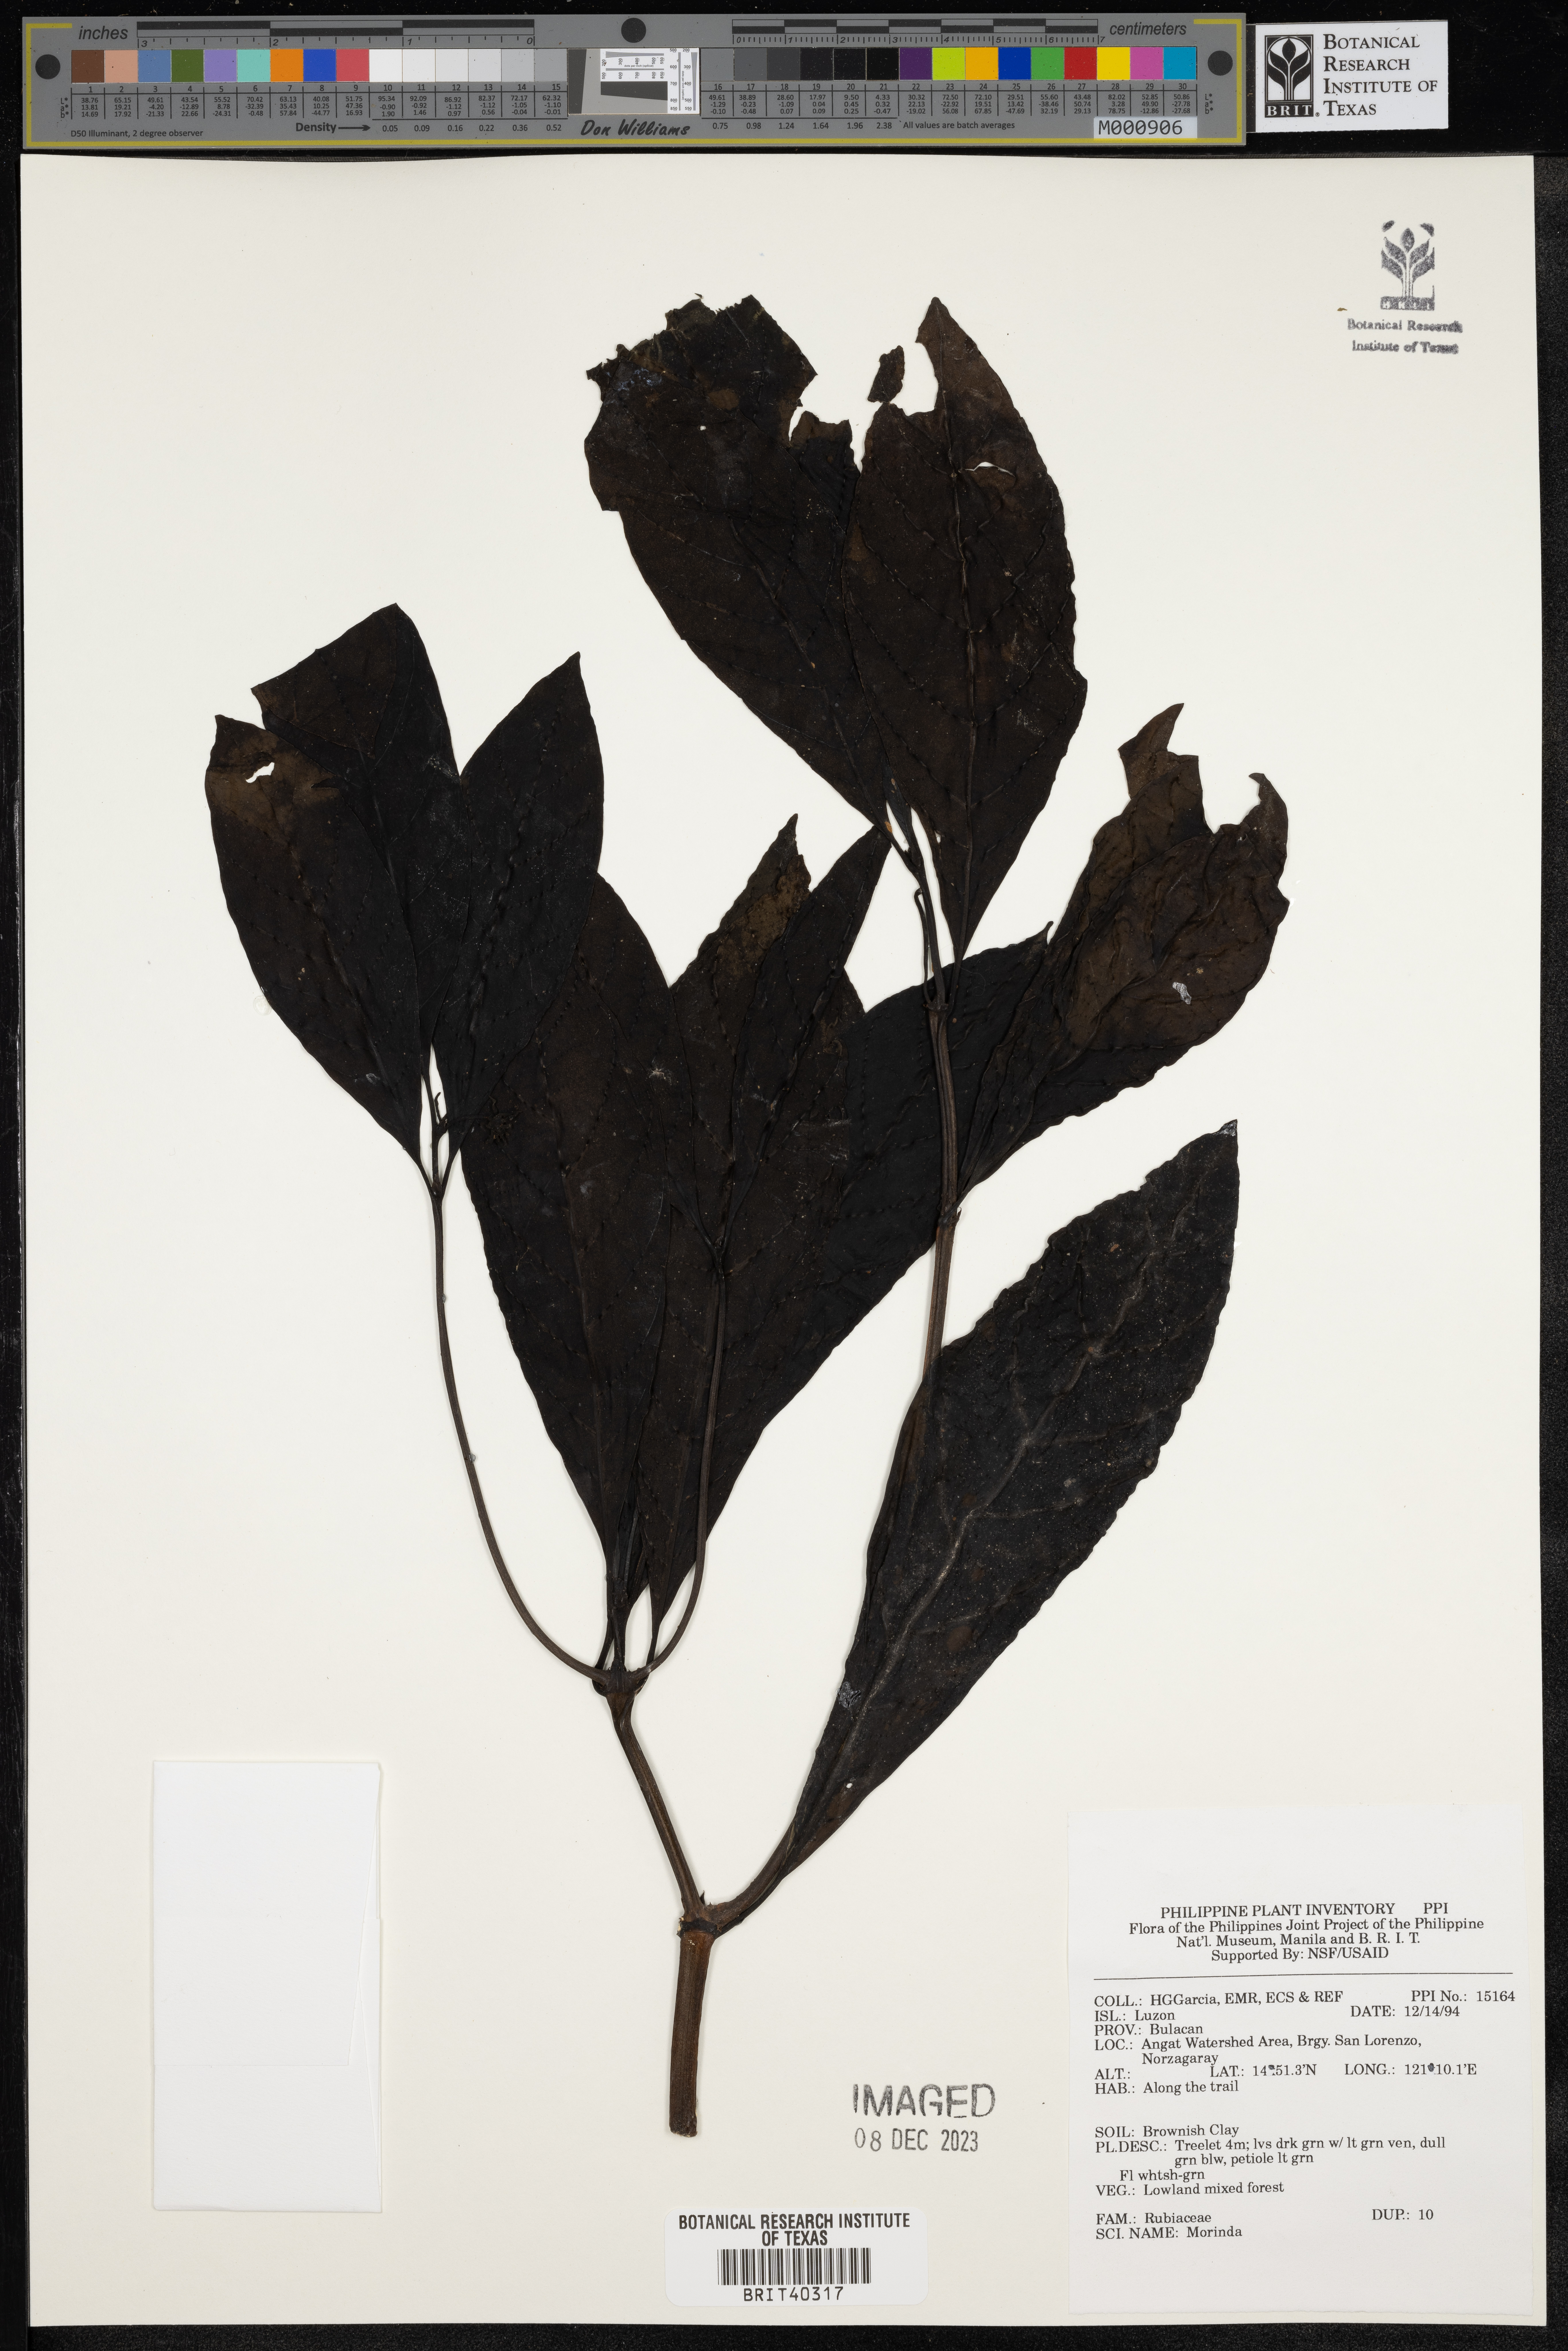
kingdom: Plantae
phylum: Tracheophyta
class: Magnoliopsida
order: Gentianales
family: Rubiaceae
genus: Morinda
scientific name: Morinda
